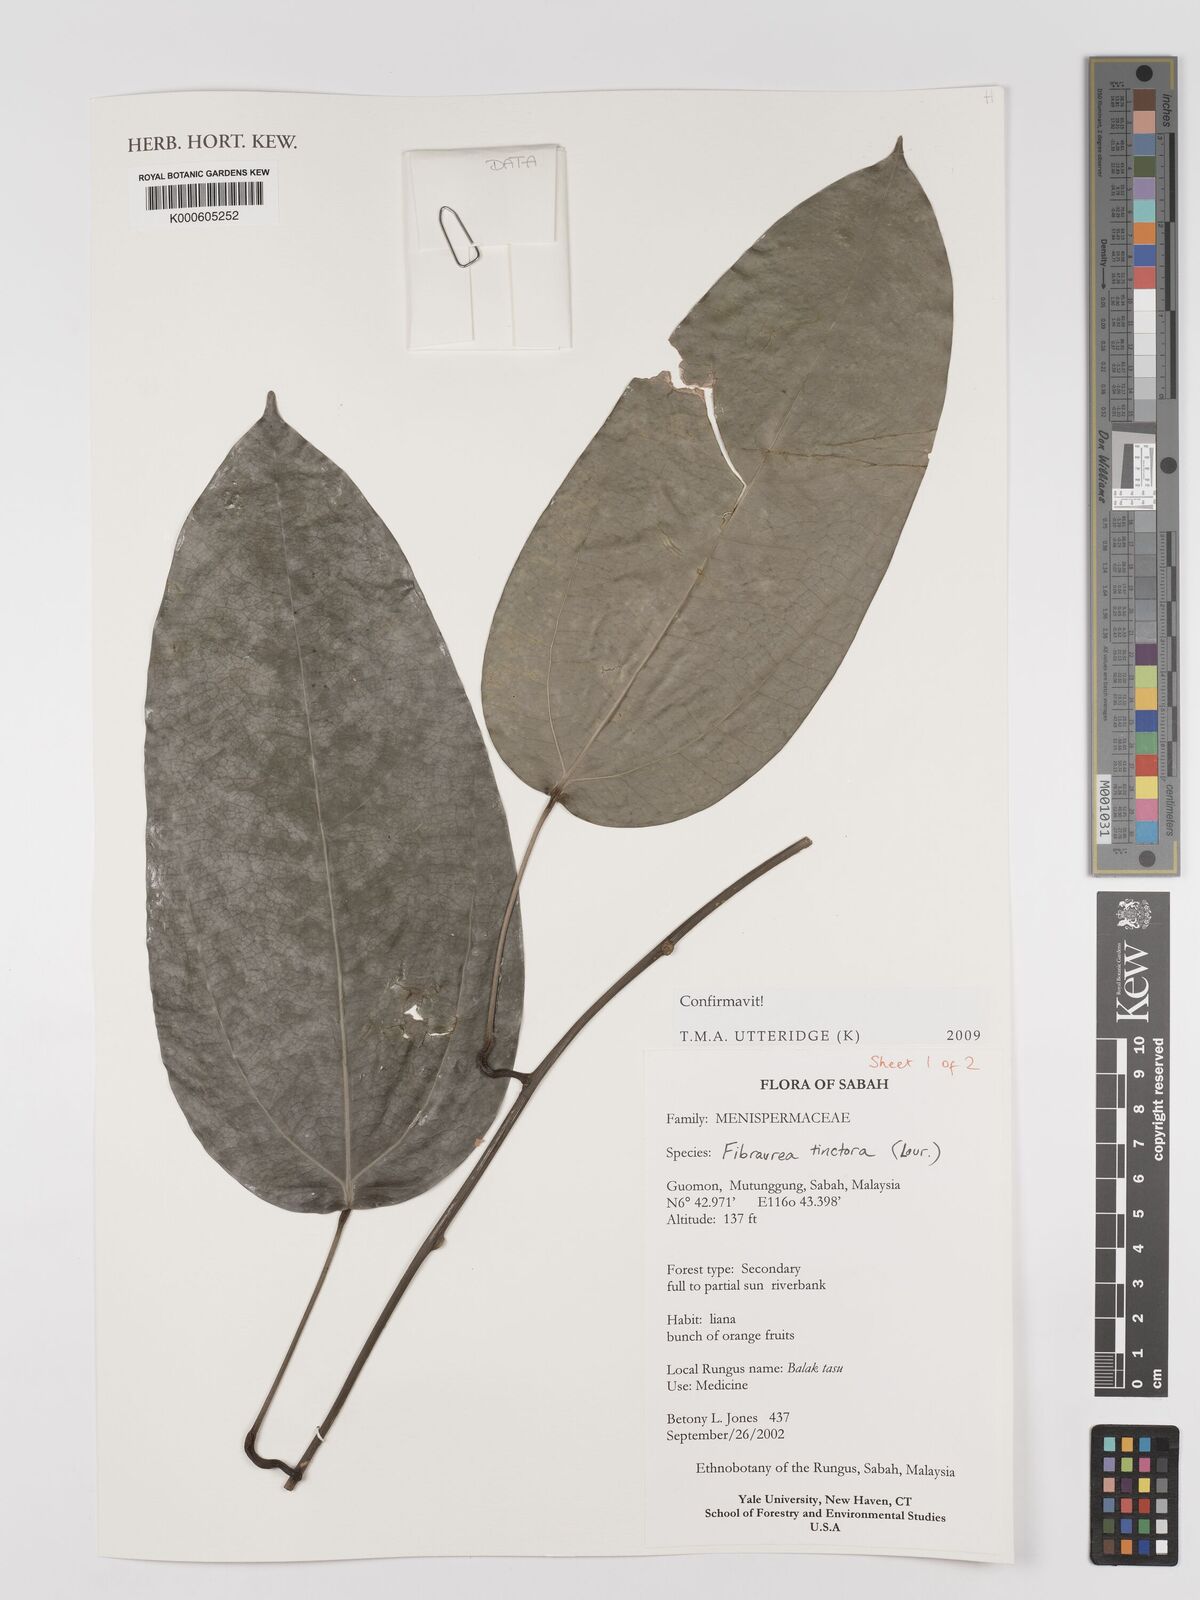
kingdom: Plantae
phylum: Tracheophyta
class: Magnoliopsida
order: Ranunculales
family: Menispermaceae
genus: Fibraurea
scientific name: Fibraurea tinctoria
